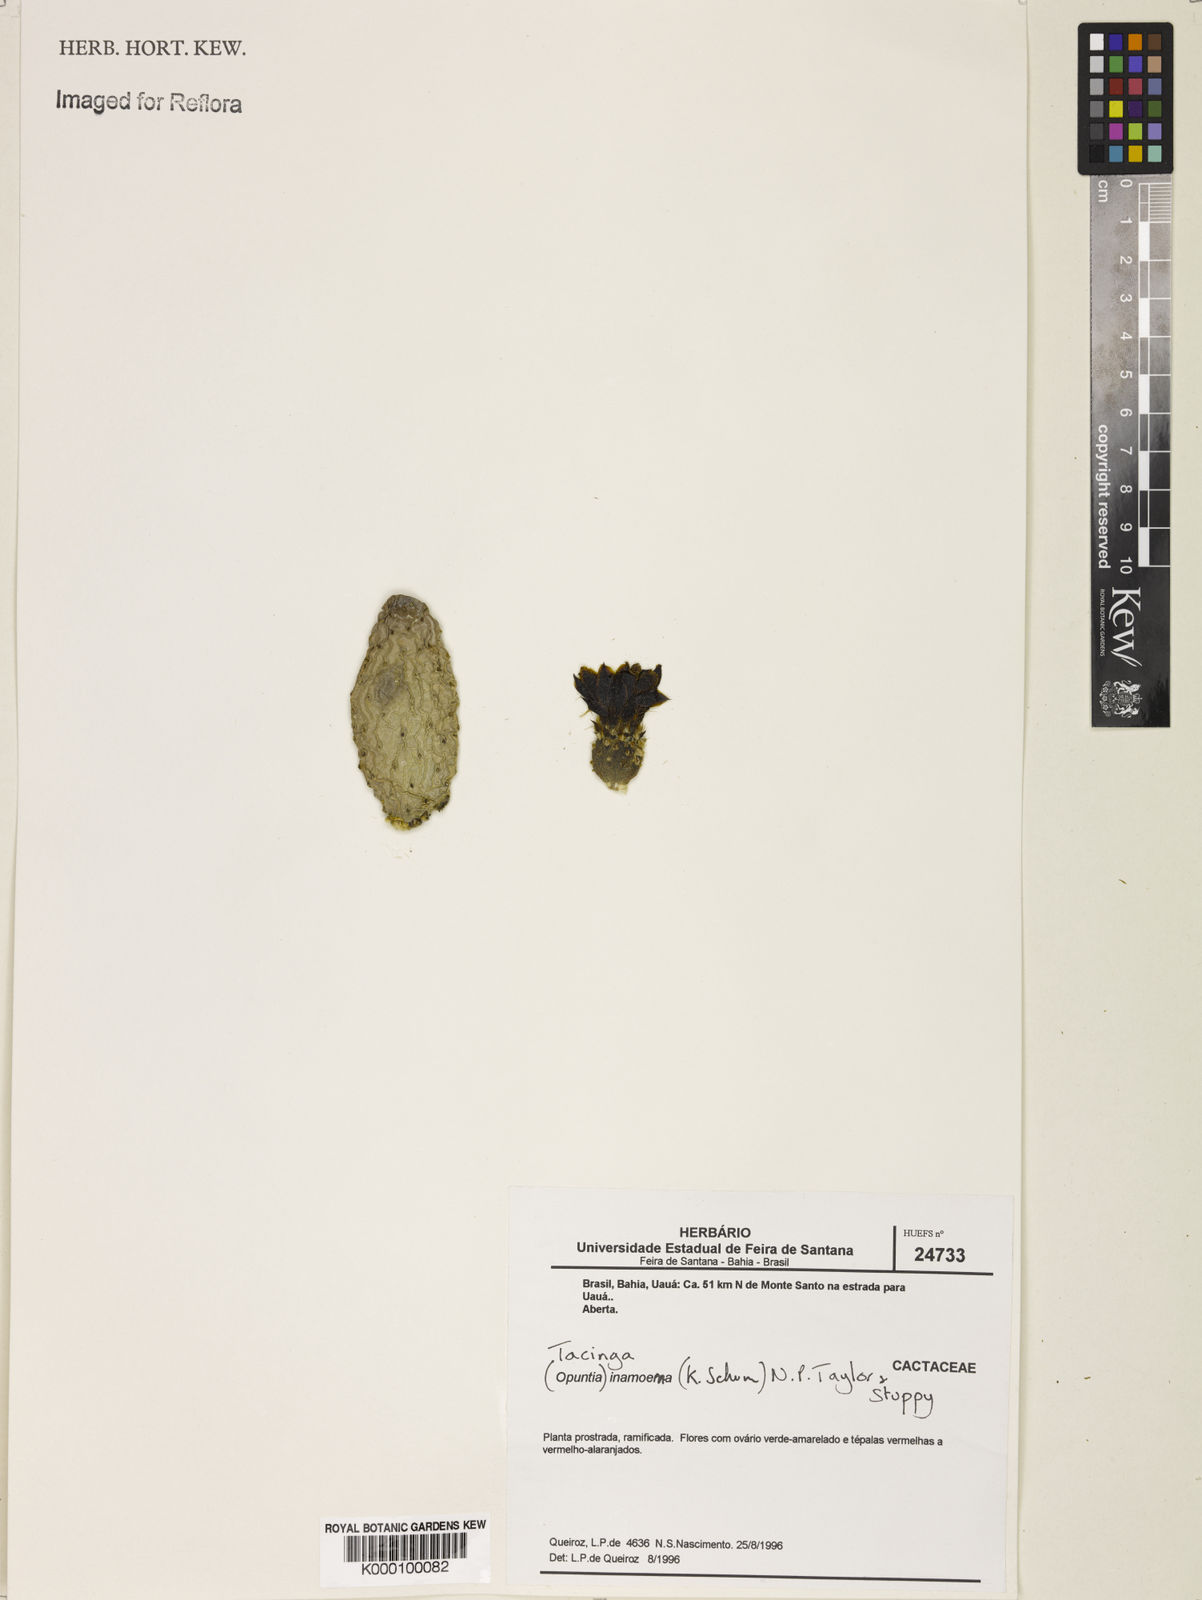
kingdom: Plantae
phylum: Tracheophyta
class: Magnoliopsida
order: Caryophyllales
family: Cactaceae
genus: Tacinga
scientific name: Tacinga inamoena
